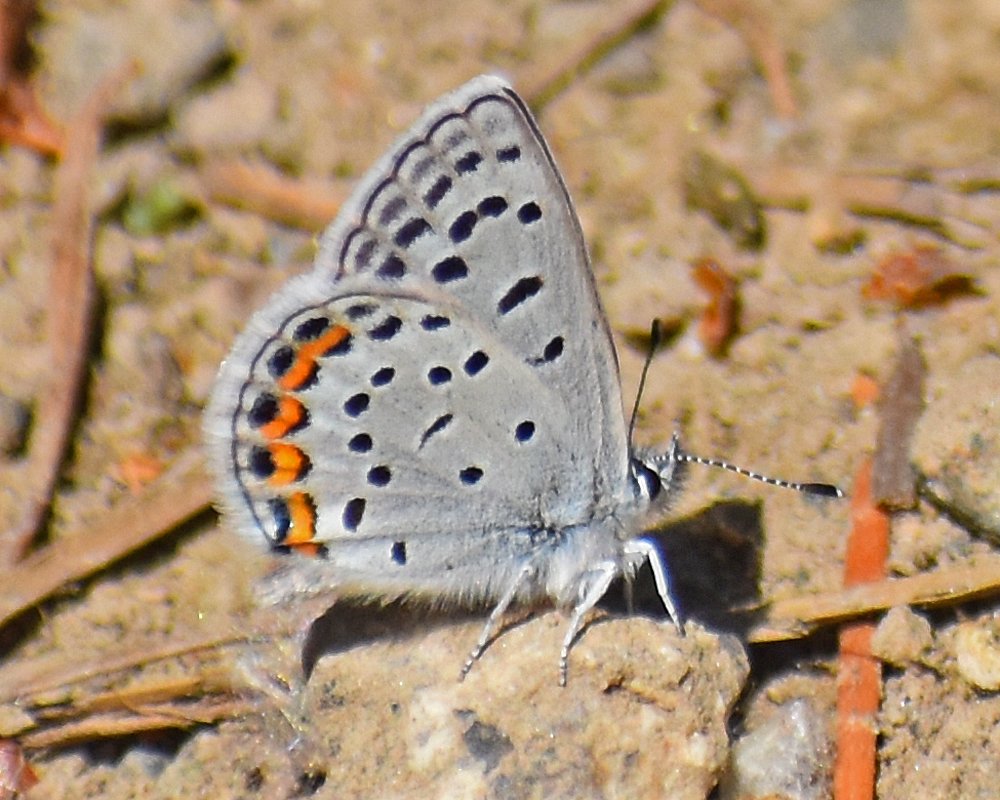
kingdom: Animalia
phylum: Arthropoda
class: Insecta
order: Lepidoptera
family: Lycaenidae
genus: Plebejus
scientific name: Plebejus lupini
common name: Lupine Blue
